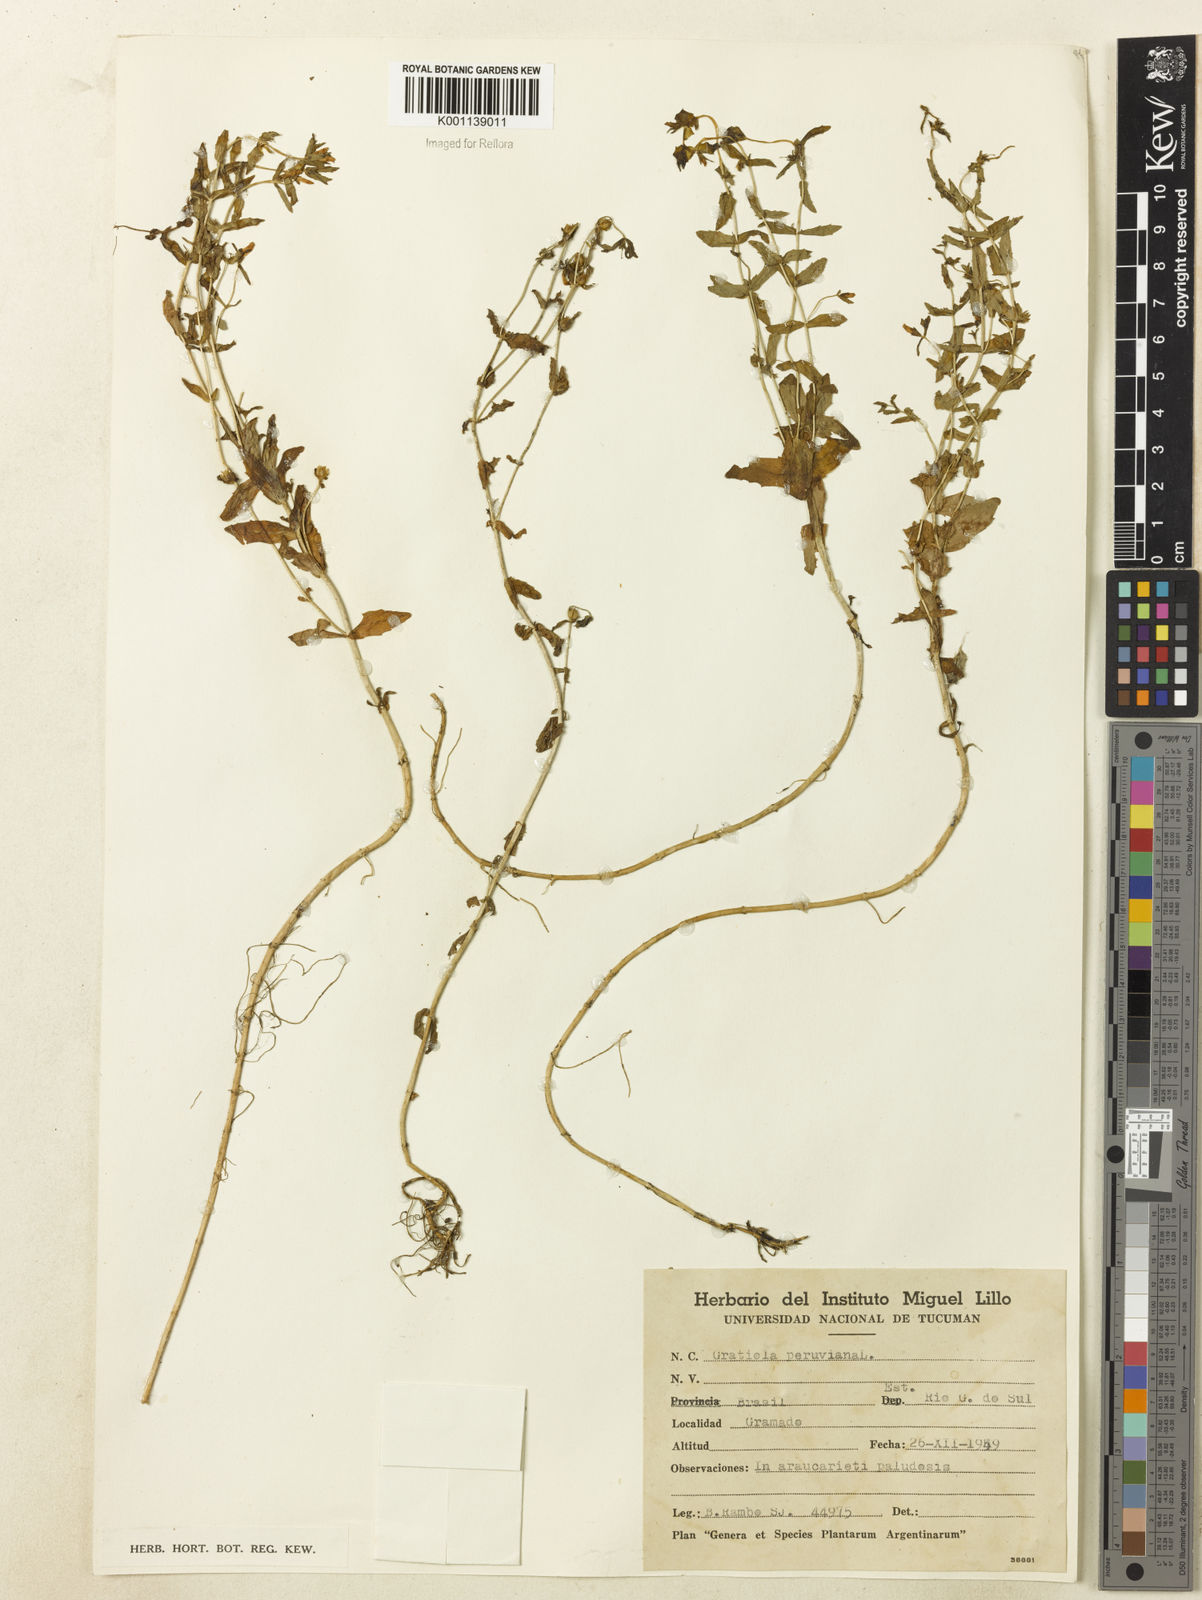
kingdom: Plantae
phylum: Tracheophyta
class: Magnoliopsida
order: Lamiales
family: Plantaginaceae
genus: Gratiola
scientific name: Gratiola peruviana
